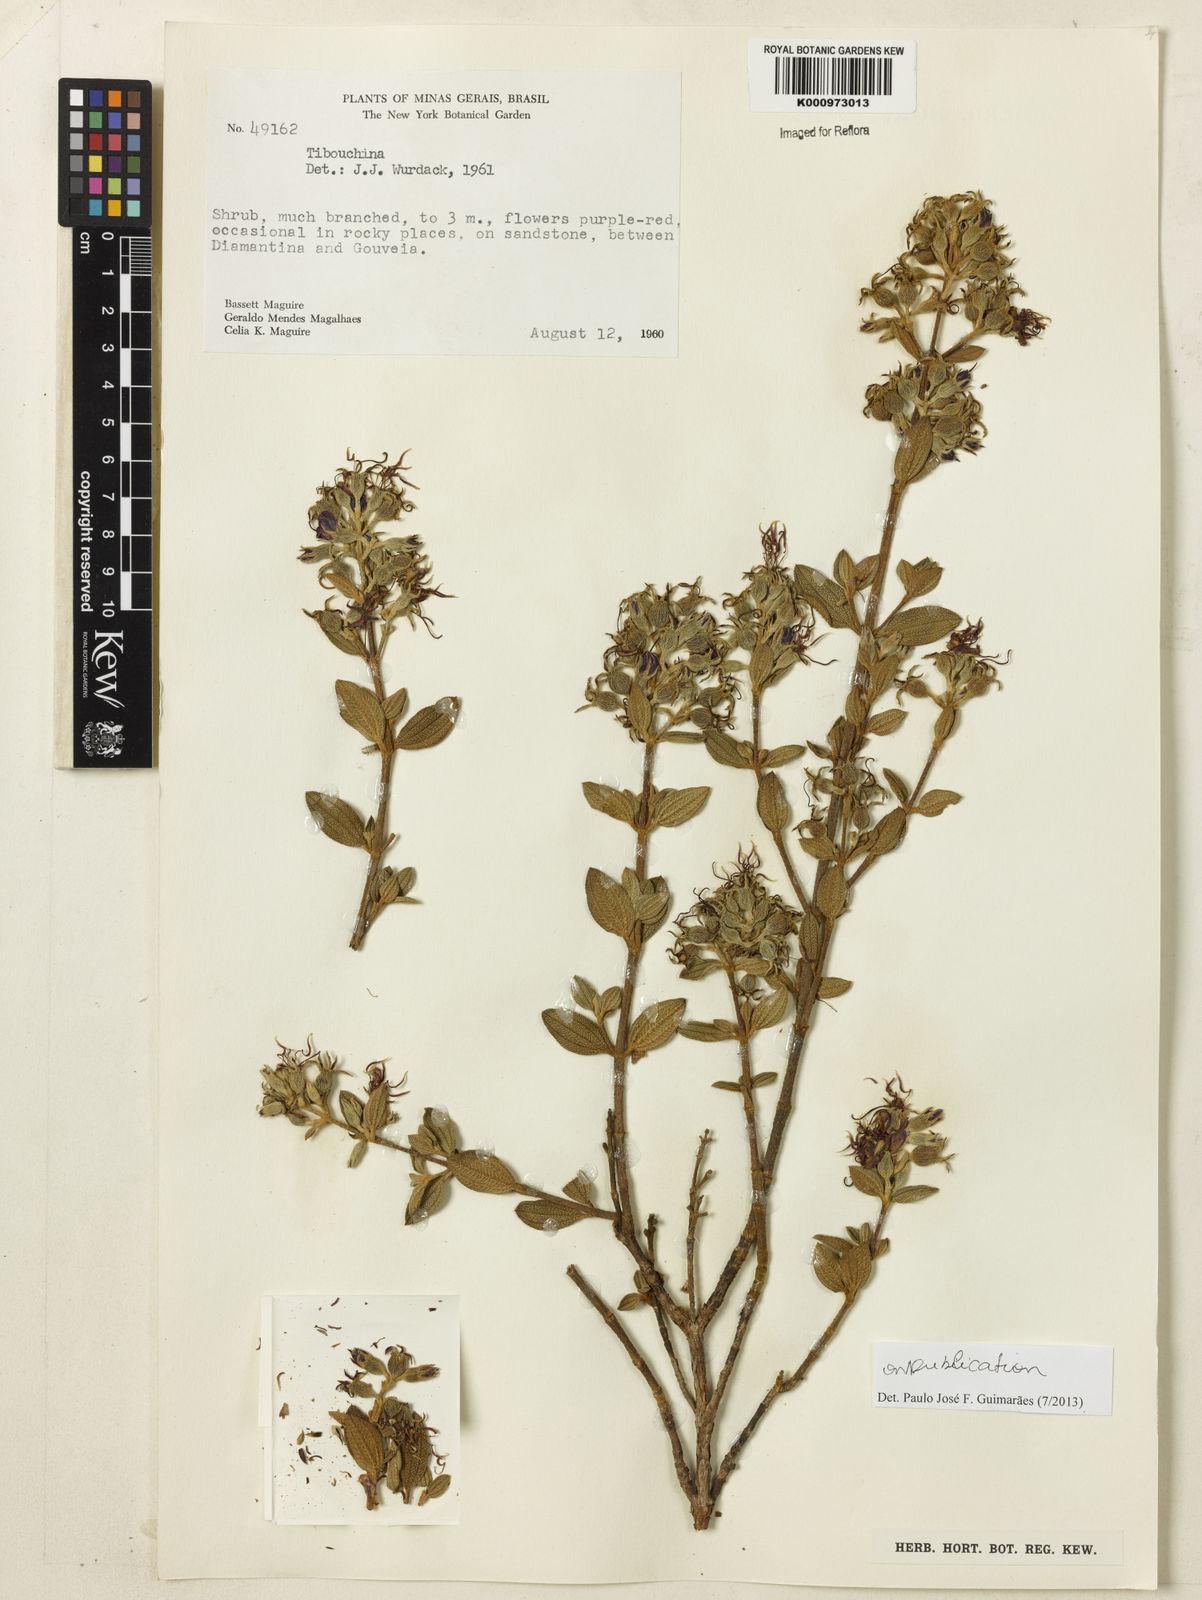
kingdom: Plantae
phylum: Tracheophyta
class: Magnoliopsida
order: Myrtales
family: Melastomataceae
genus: Tibouchina
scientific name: Tibouchina
